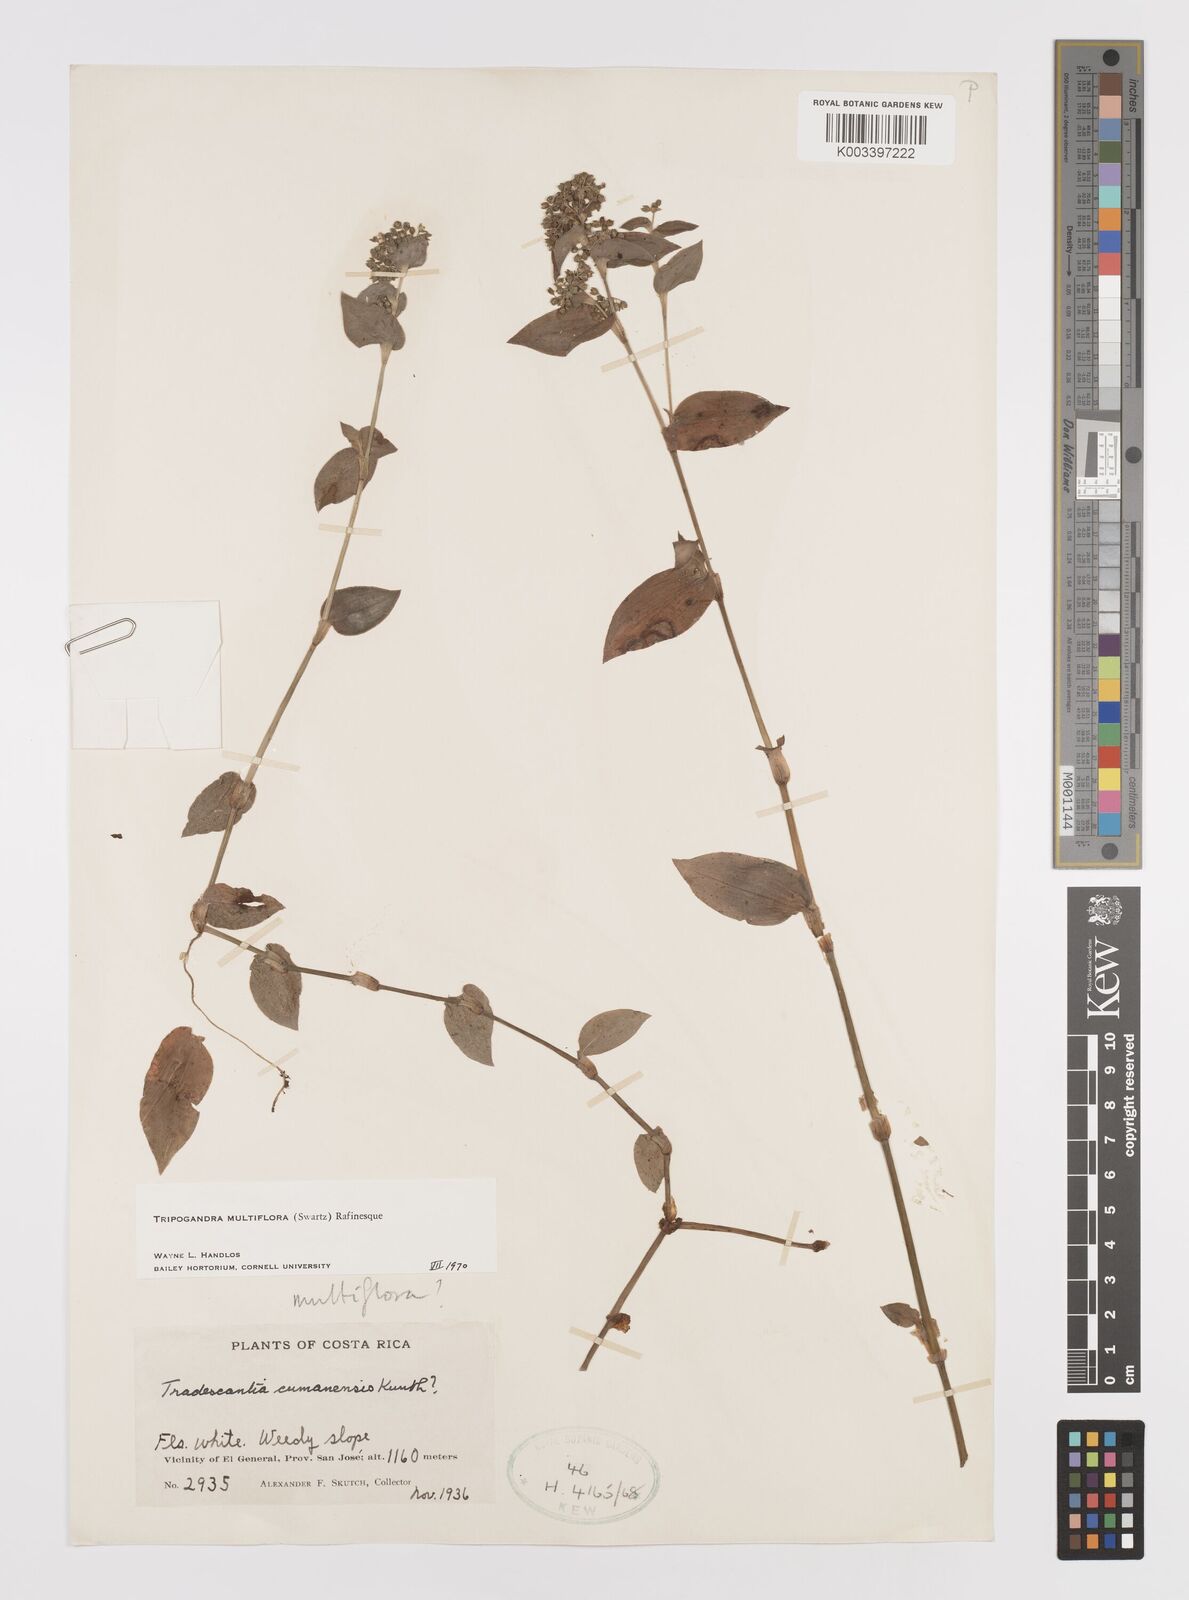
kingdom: Plantae
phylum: Tracheophyta
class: Liliopsida
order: Commelinales
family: Commelinaceae
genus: Callisia
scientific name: Callisia procumbens
